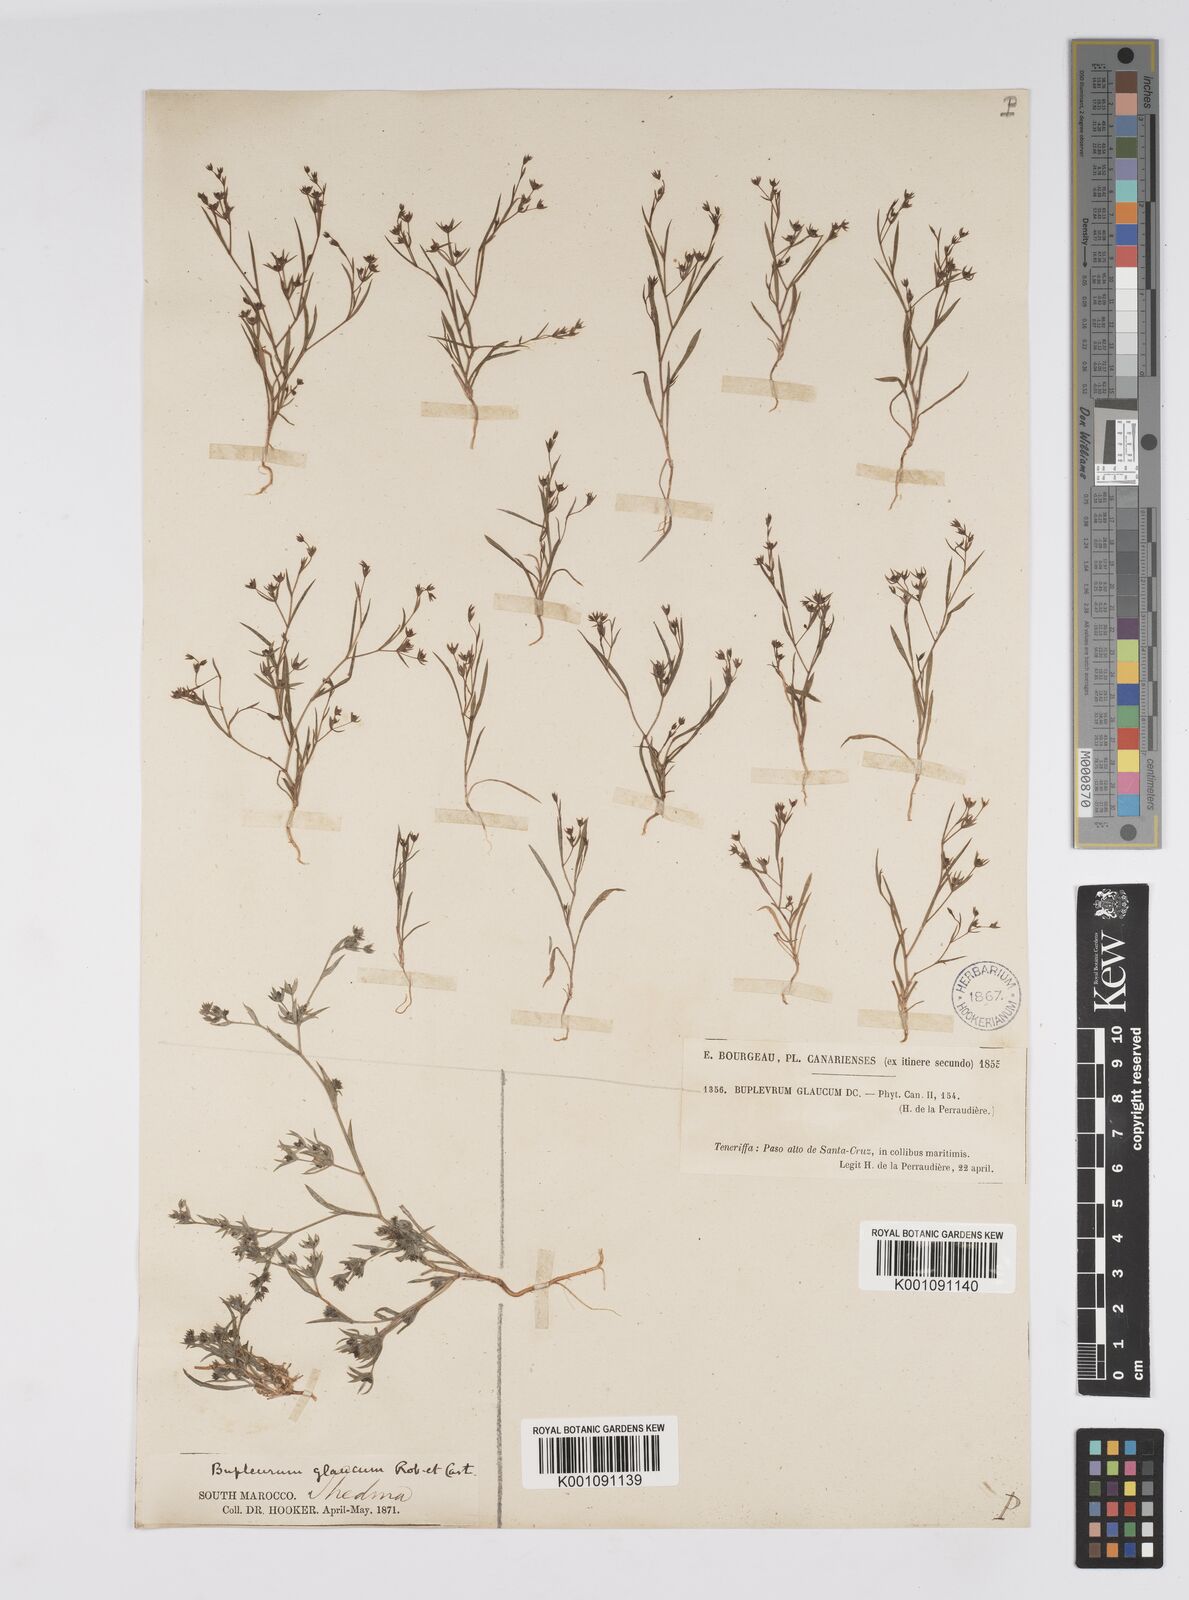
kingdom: Plantae
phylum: Tracheophyta
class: Magnoliopsida
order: Apiales
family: Apiaceae
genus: Bupleurum
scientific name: Bupleurum semicompositum
